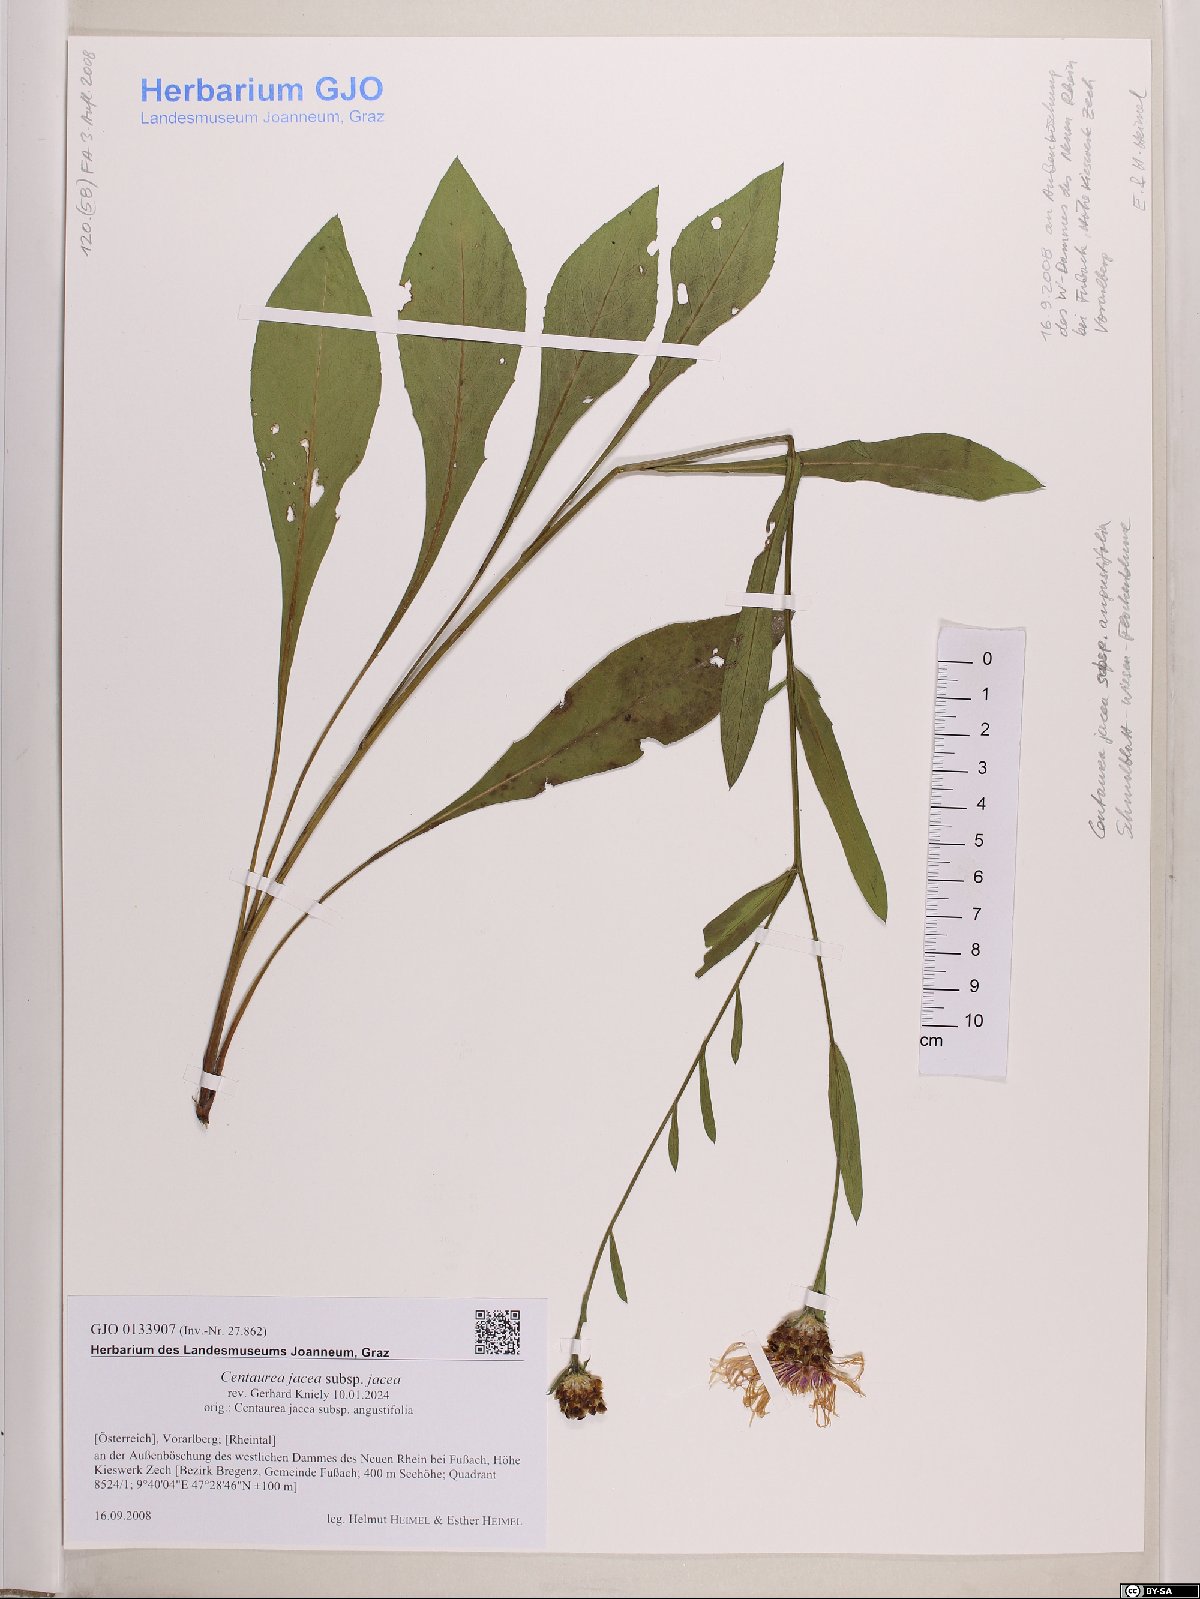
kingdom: Plantae
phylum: Tracheophyta
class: Magnoliopsida
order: Asterales
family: Asteraceae
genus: Centaurea
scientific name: Centaurea jacea
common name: Brown knapweed
